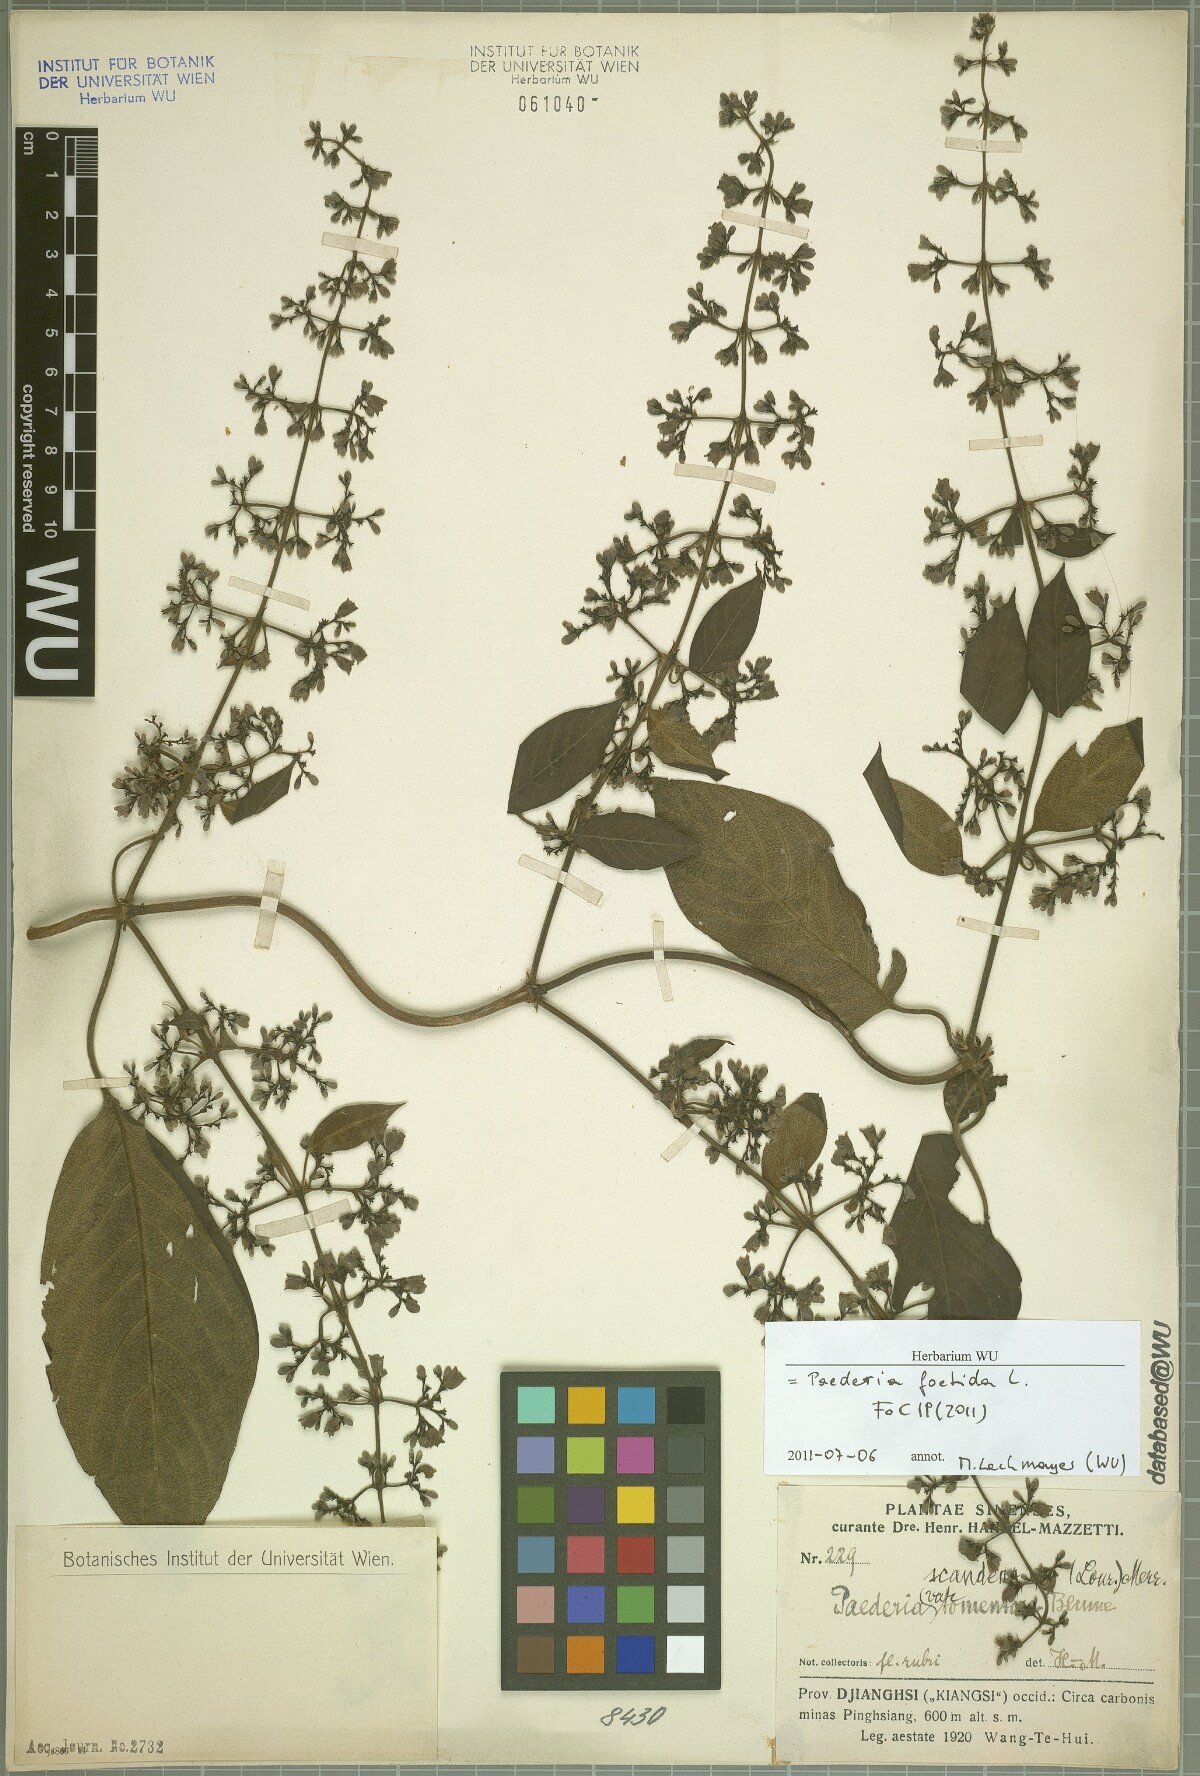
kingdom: Plantae
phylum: Tracheophyta
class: Magnoliopsida
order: Gentianales
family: Rubiaceae
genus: Paederia
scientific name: Paederia foetida
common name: Stinkvine
